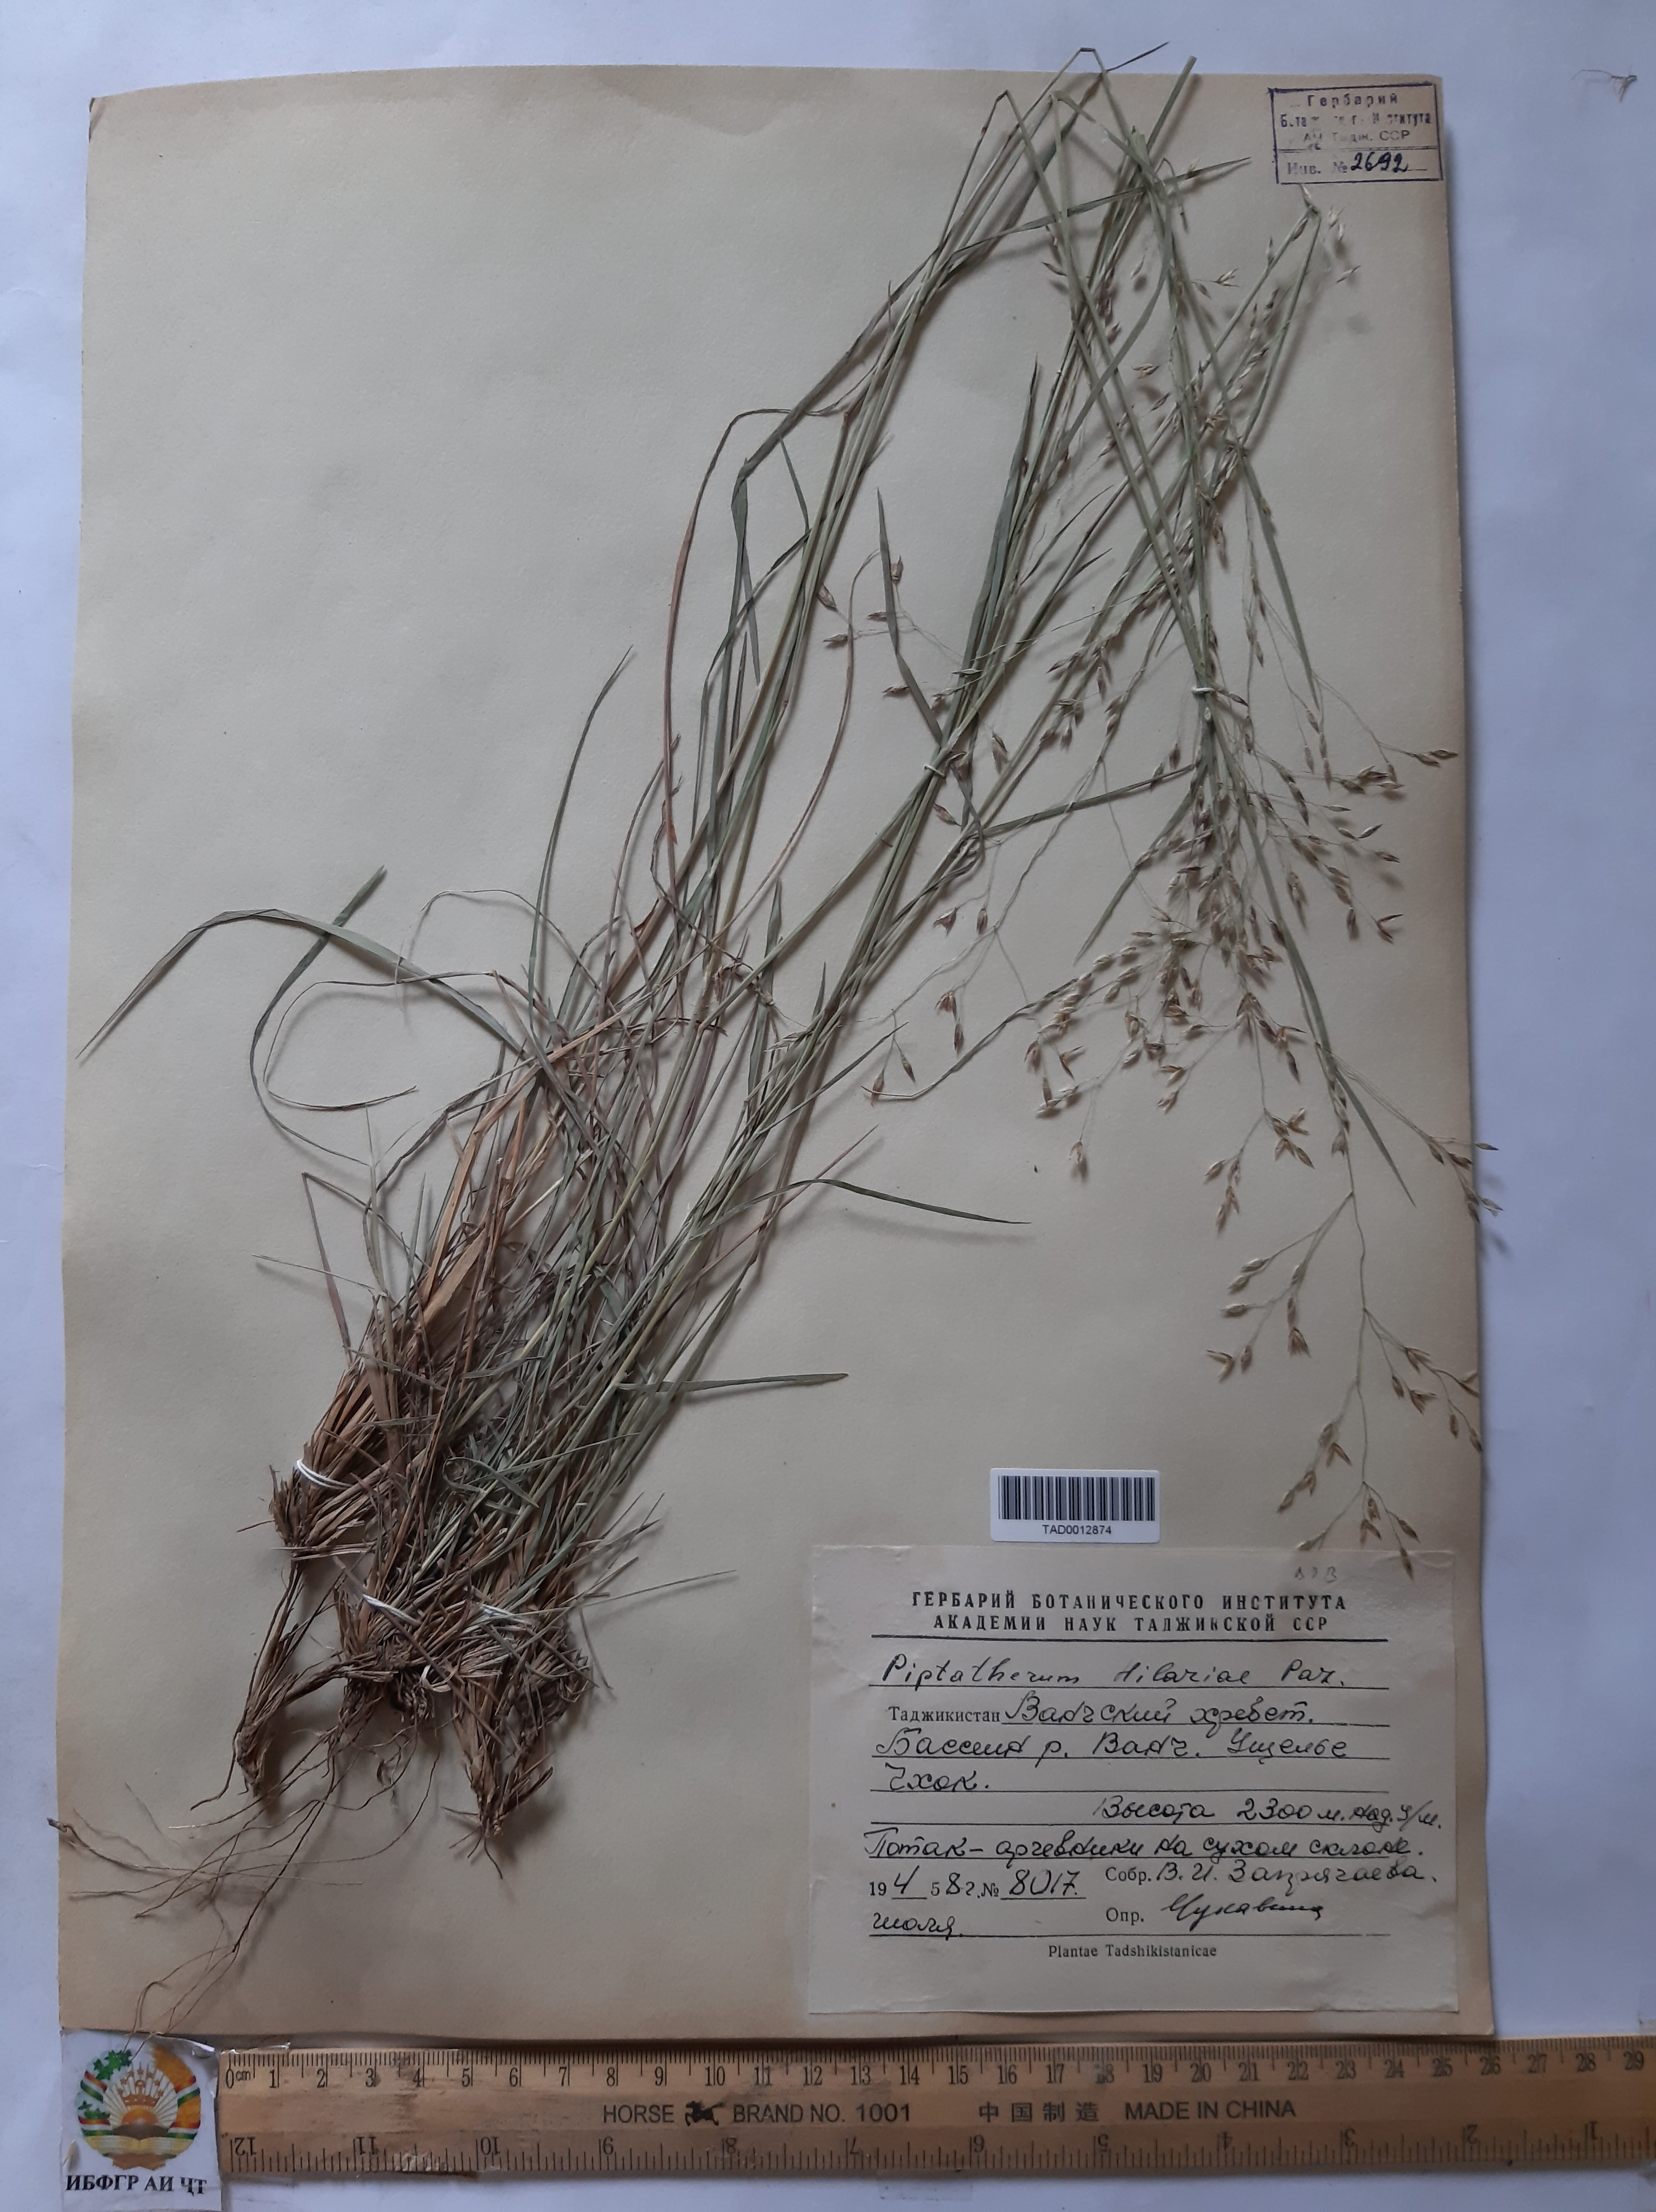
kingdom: Plantae
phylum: Tracheophyta
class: Liliopsida
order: Poales
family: Poaceae
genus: Piptatherum
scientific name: Piptatherum hilariae
